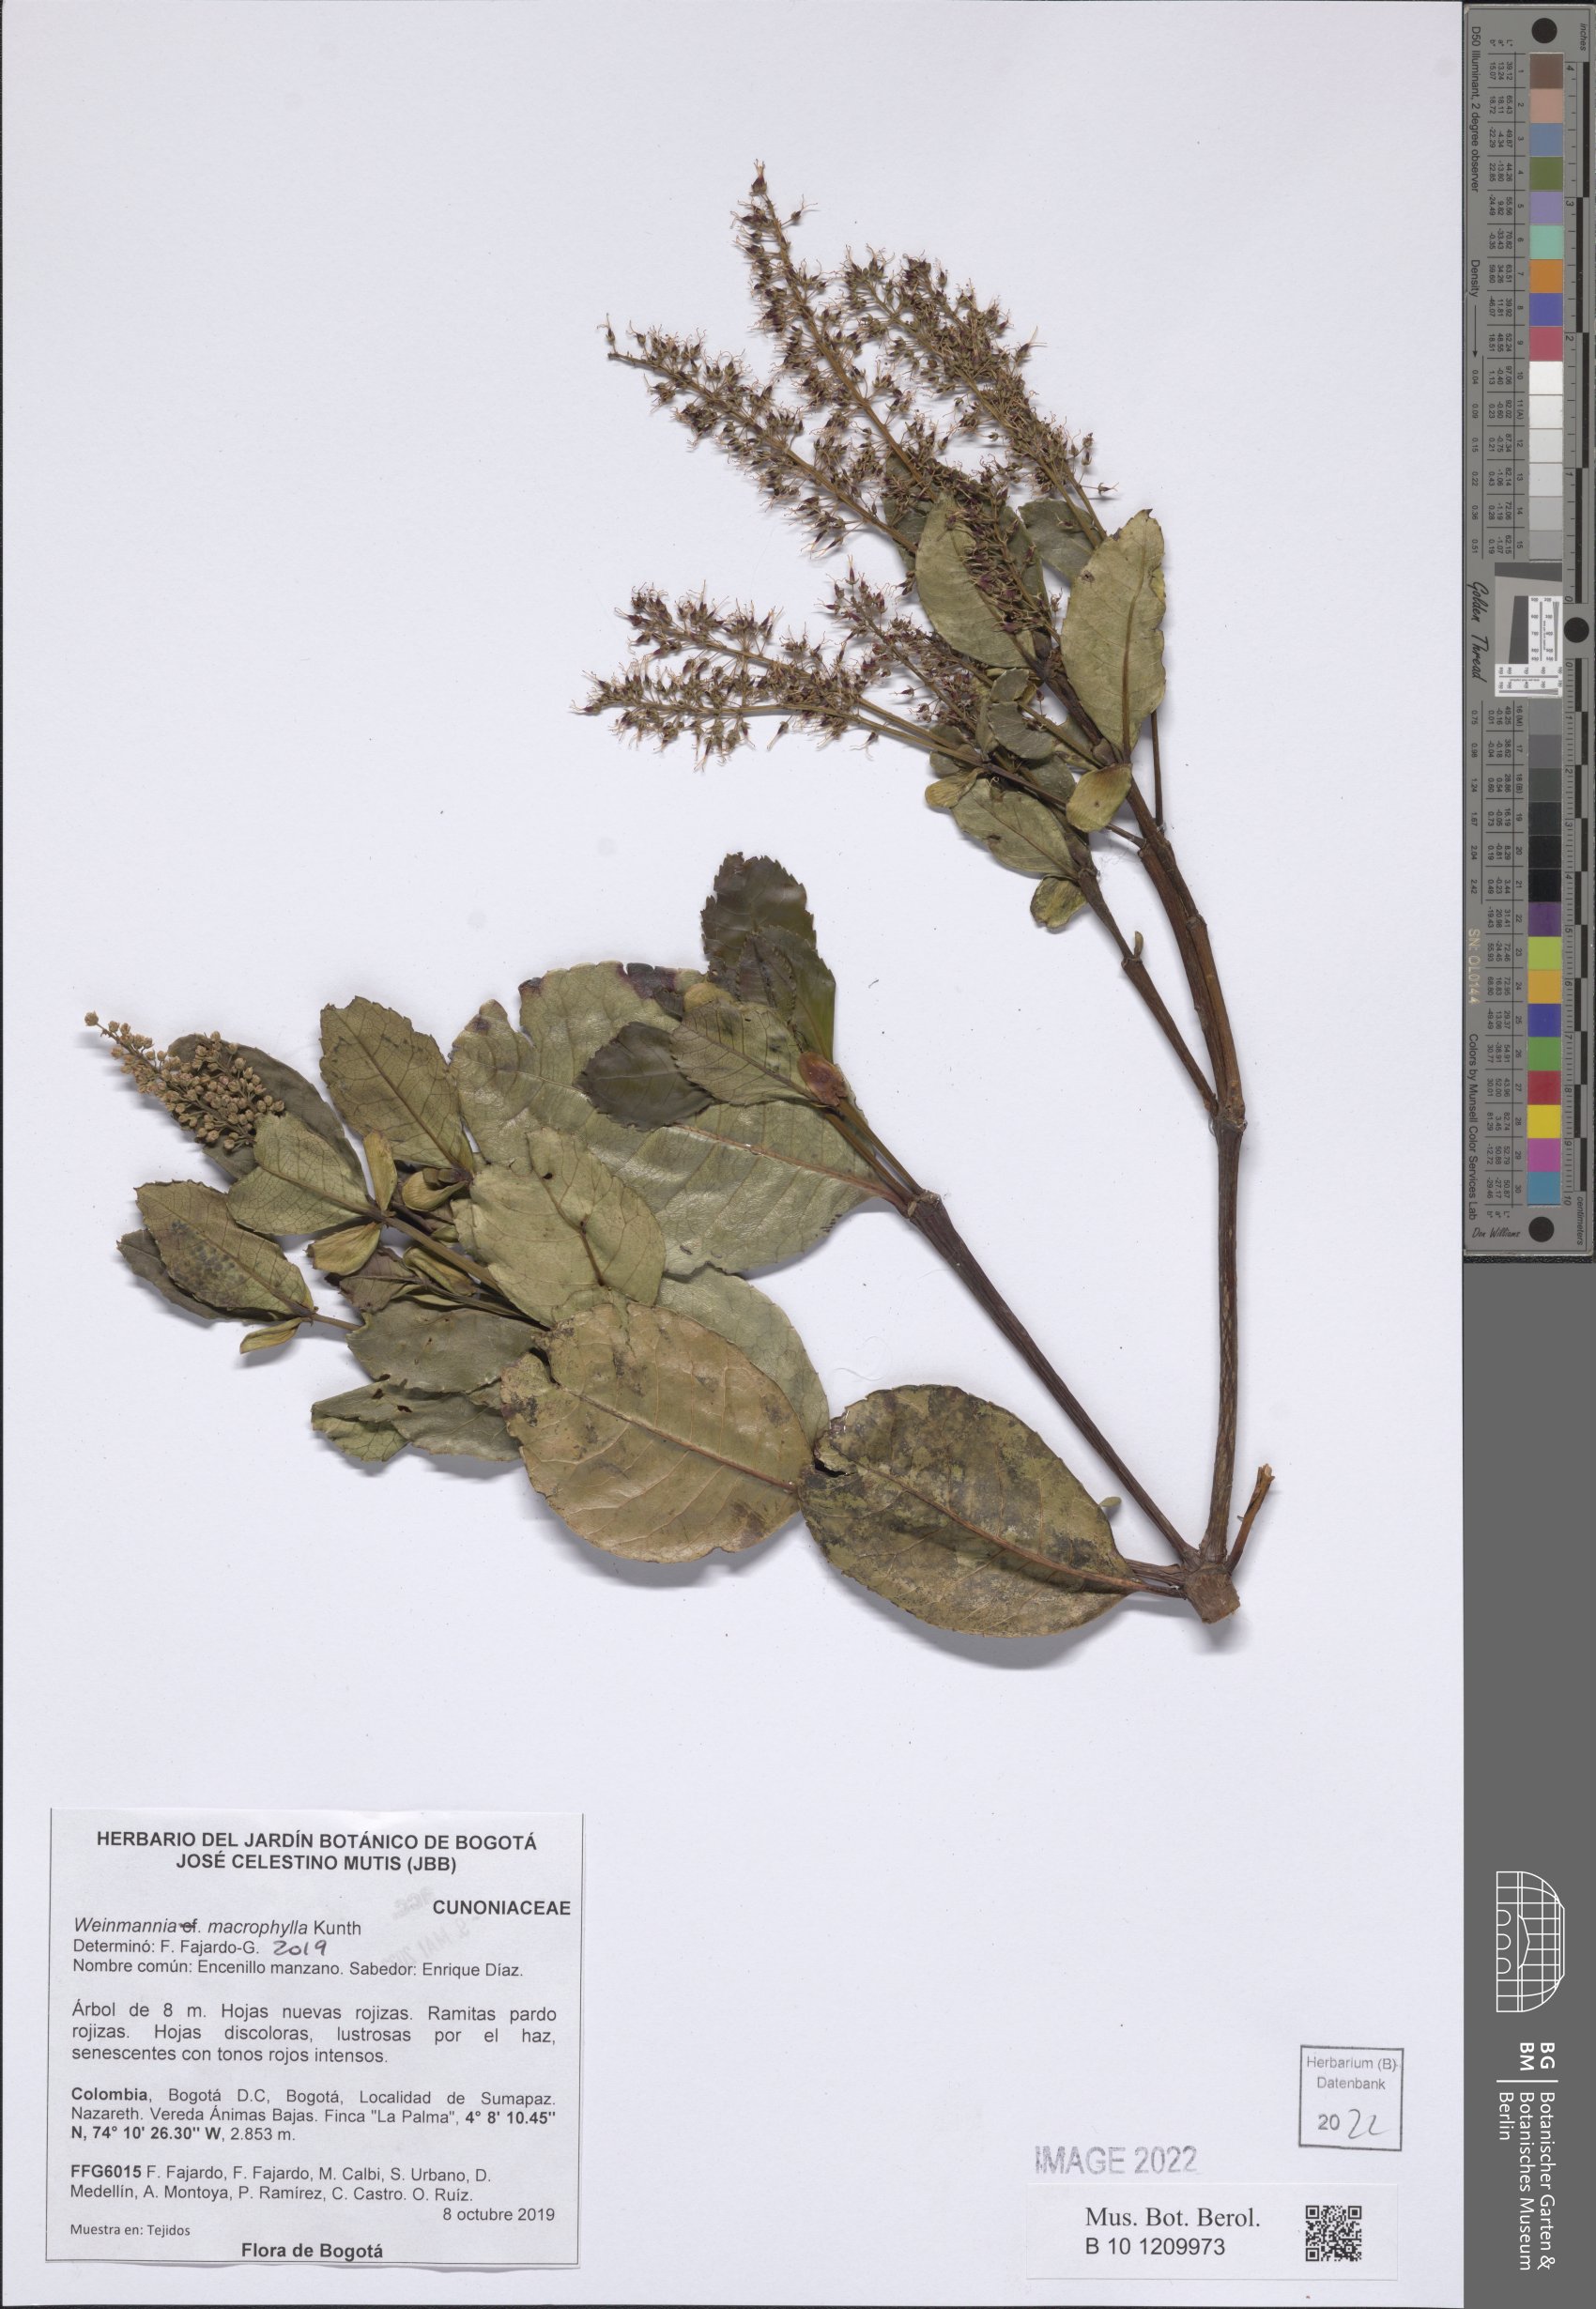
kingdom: Plantae
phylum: Tracheophyta
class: Magnoliopsida
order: Oxalidales
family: Cunoniaceae
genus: Weinmannia
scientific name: Weinmannia macrophylla
